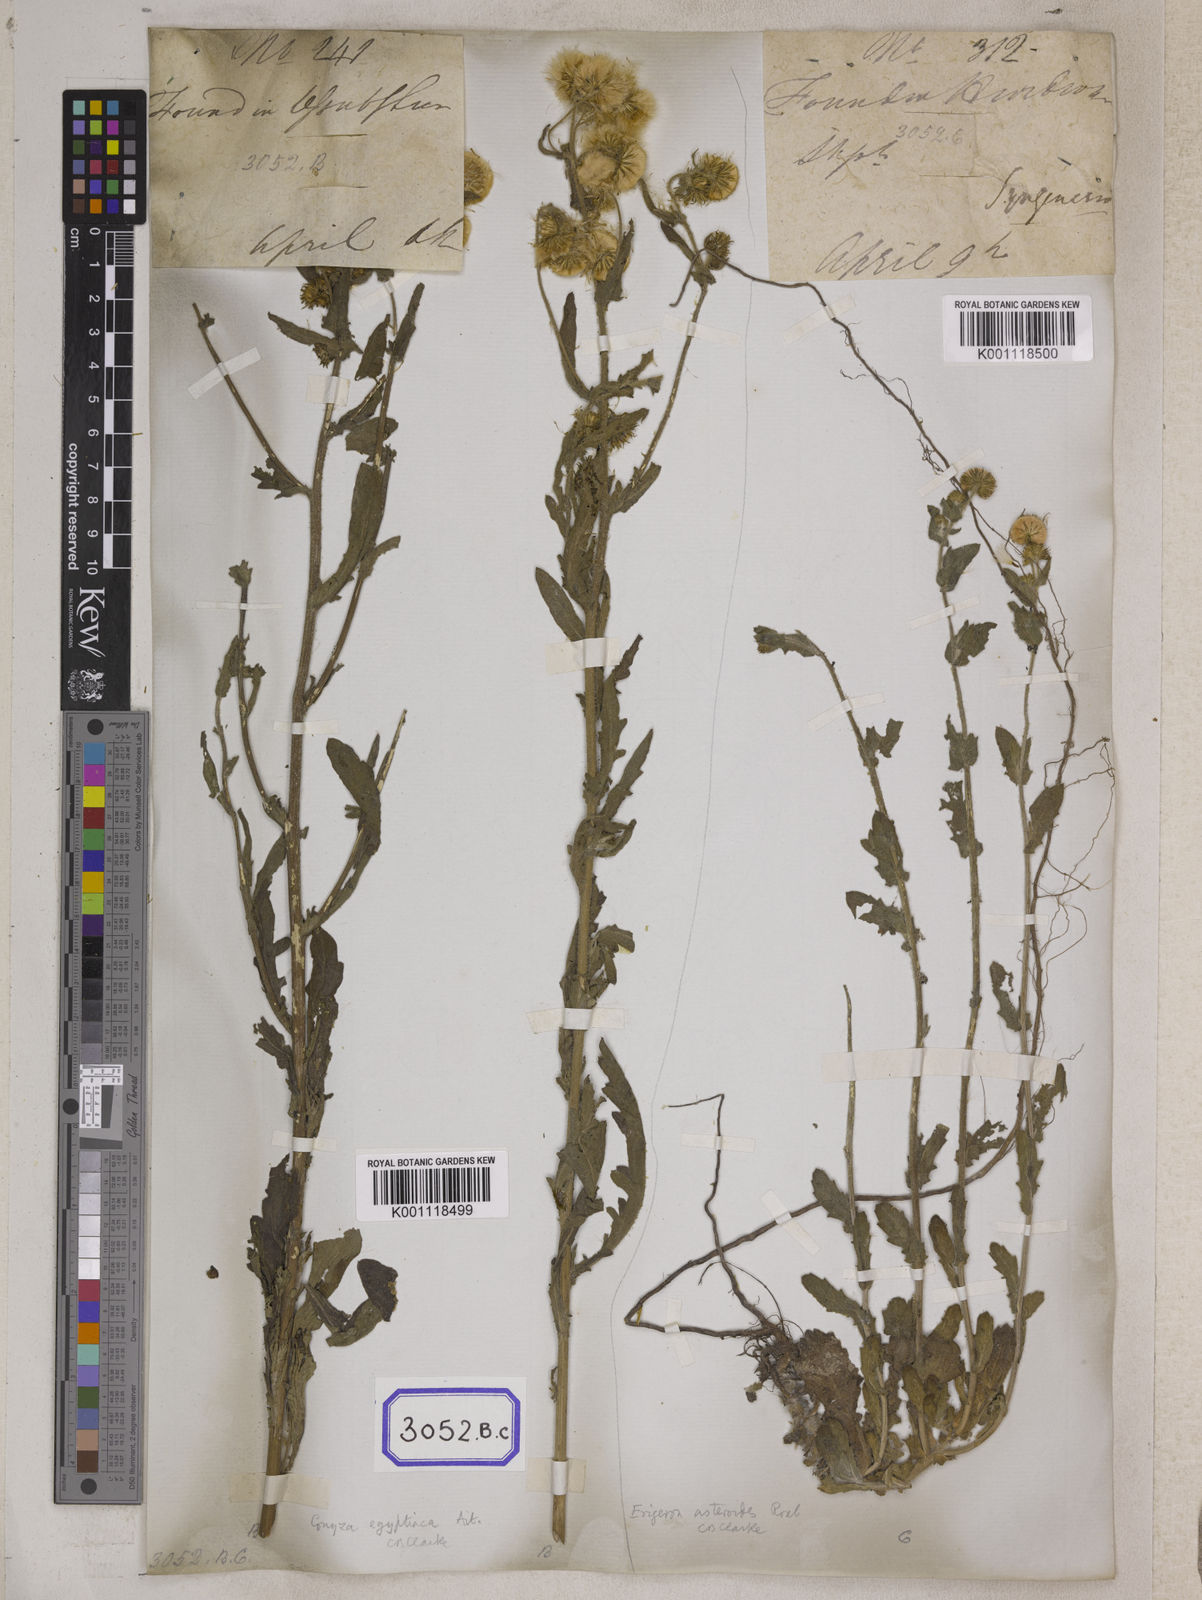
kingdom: Plantae
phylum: Tracheophyta
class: Magnoliopsida
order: Asterales
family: Asteraceae
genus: Pluchea
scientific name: Pluchea dioscoridis
